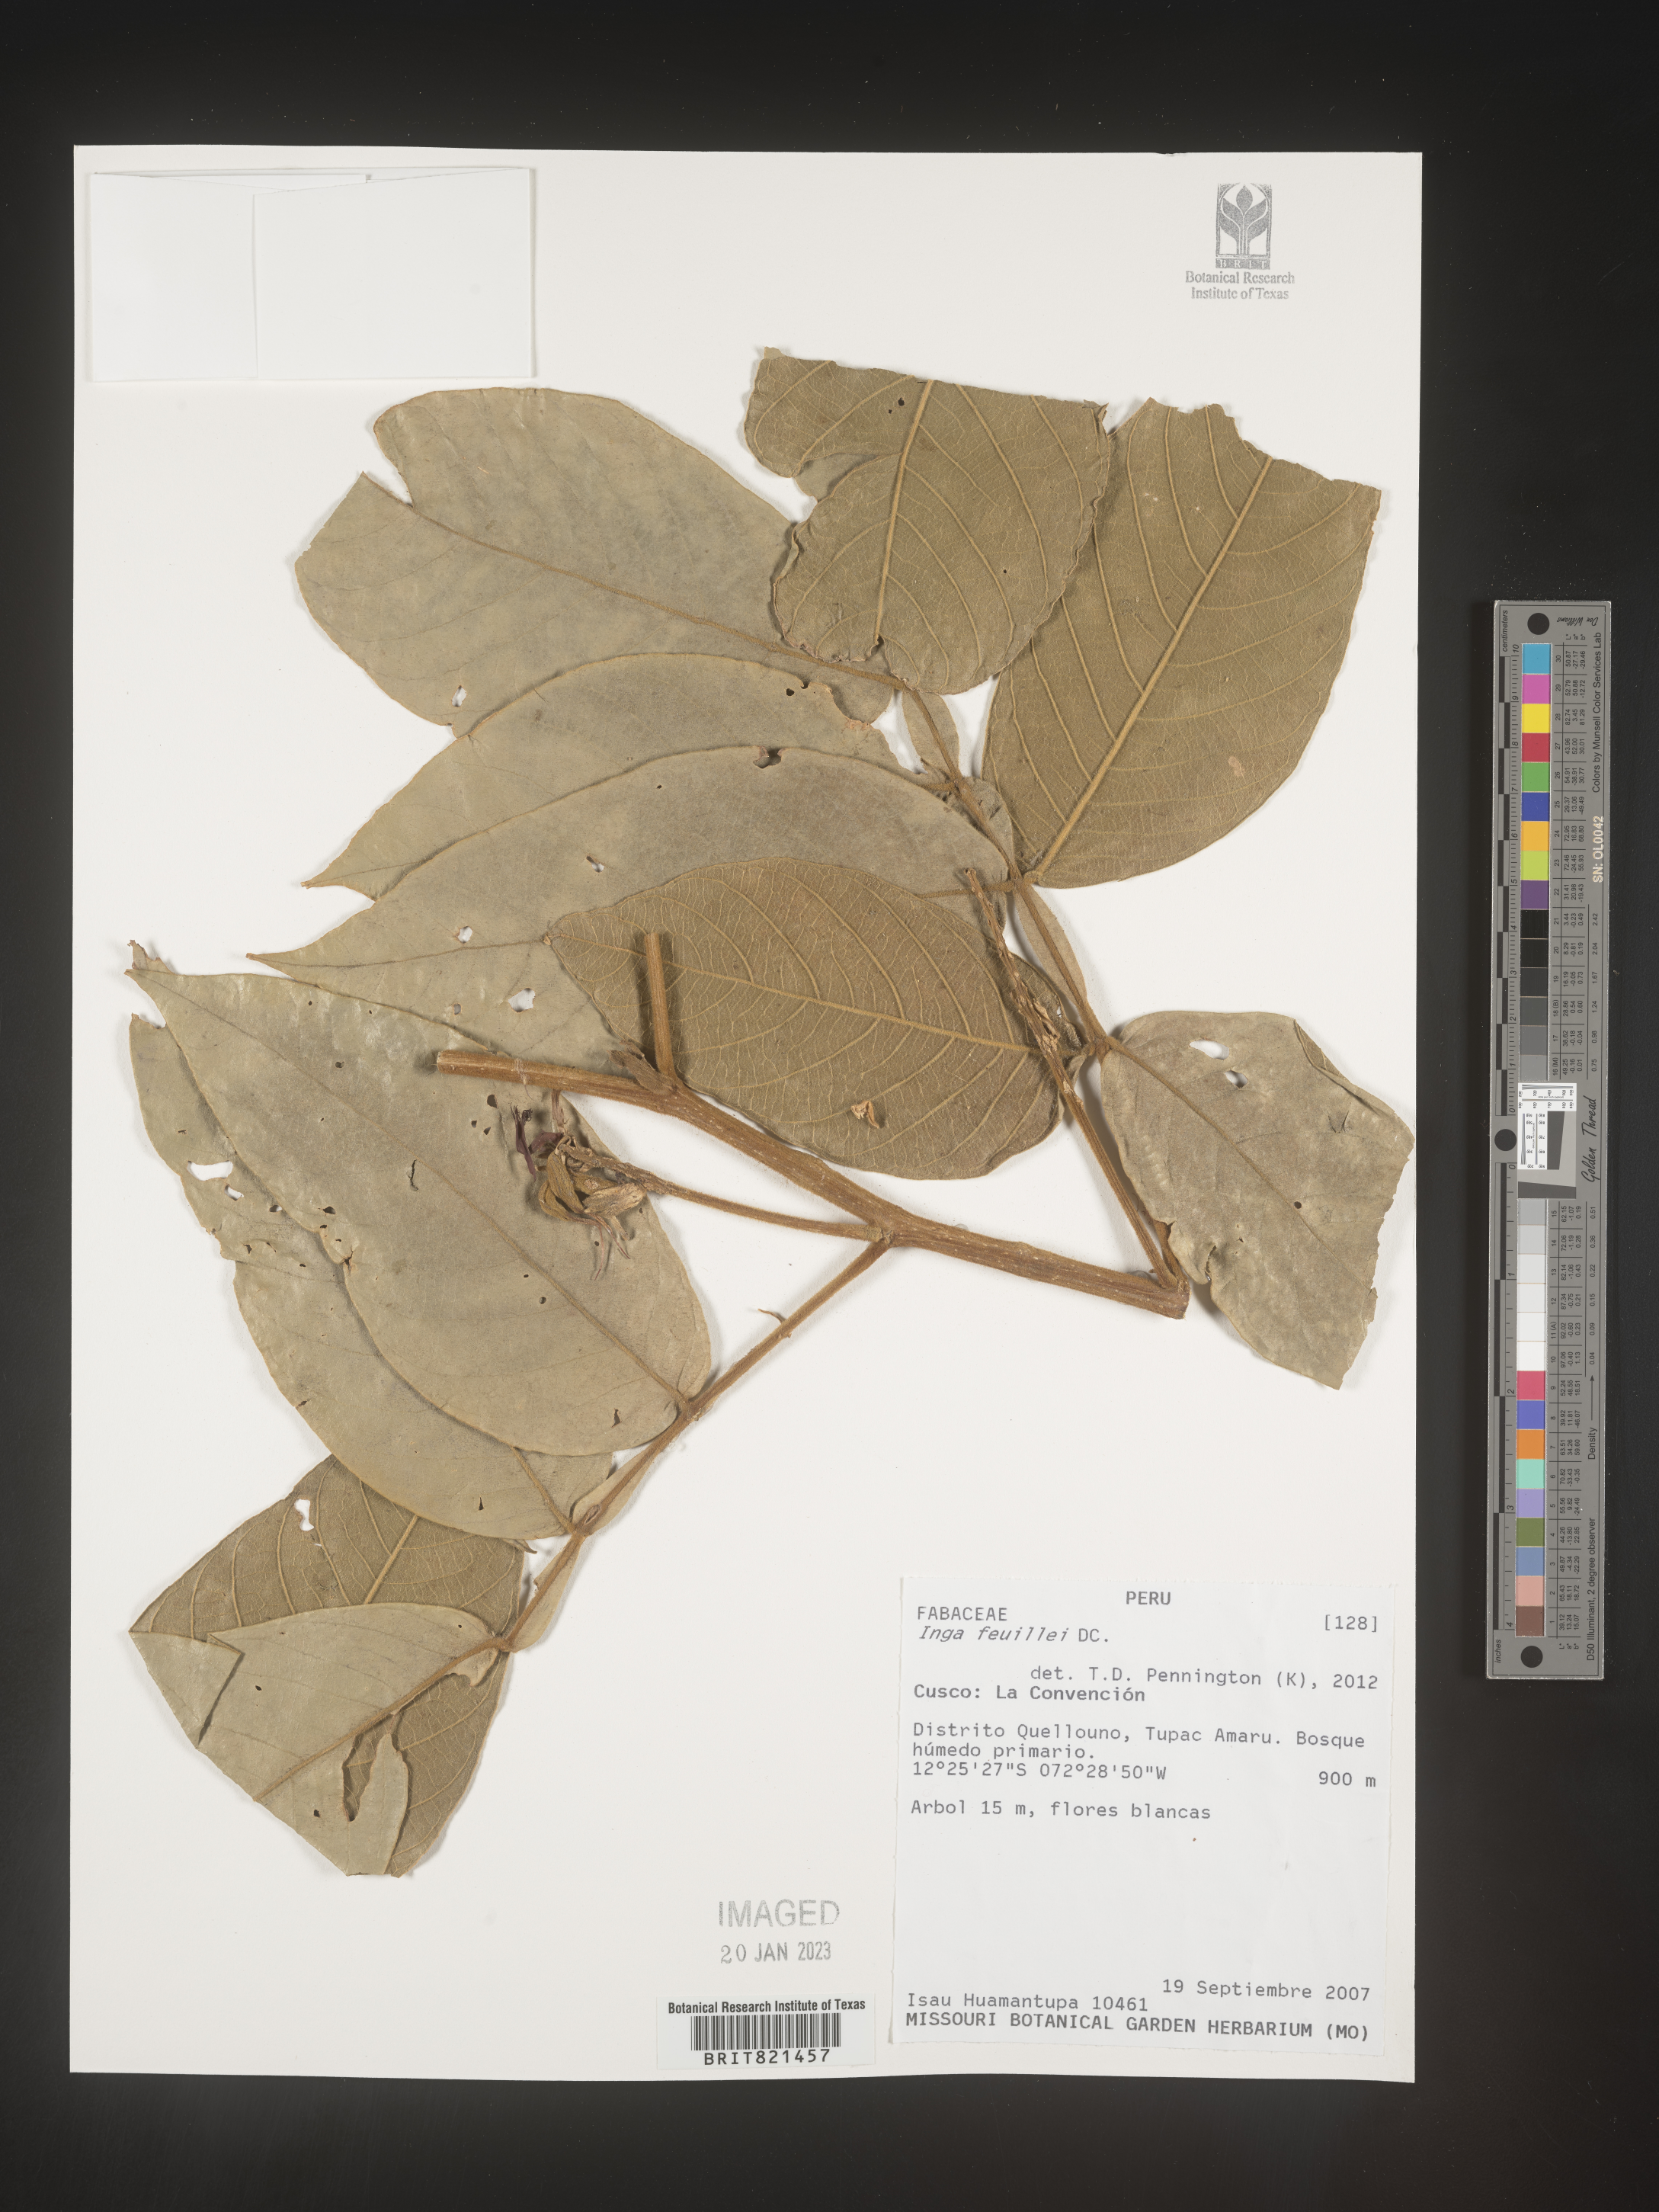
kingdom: Plantae
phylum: Tracheophyta
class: Magnoliopsida
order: Fabales
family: Fabaceae
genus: Inga
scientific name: Inga
